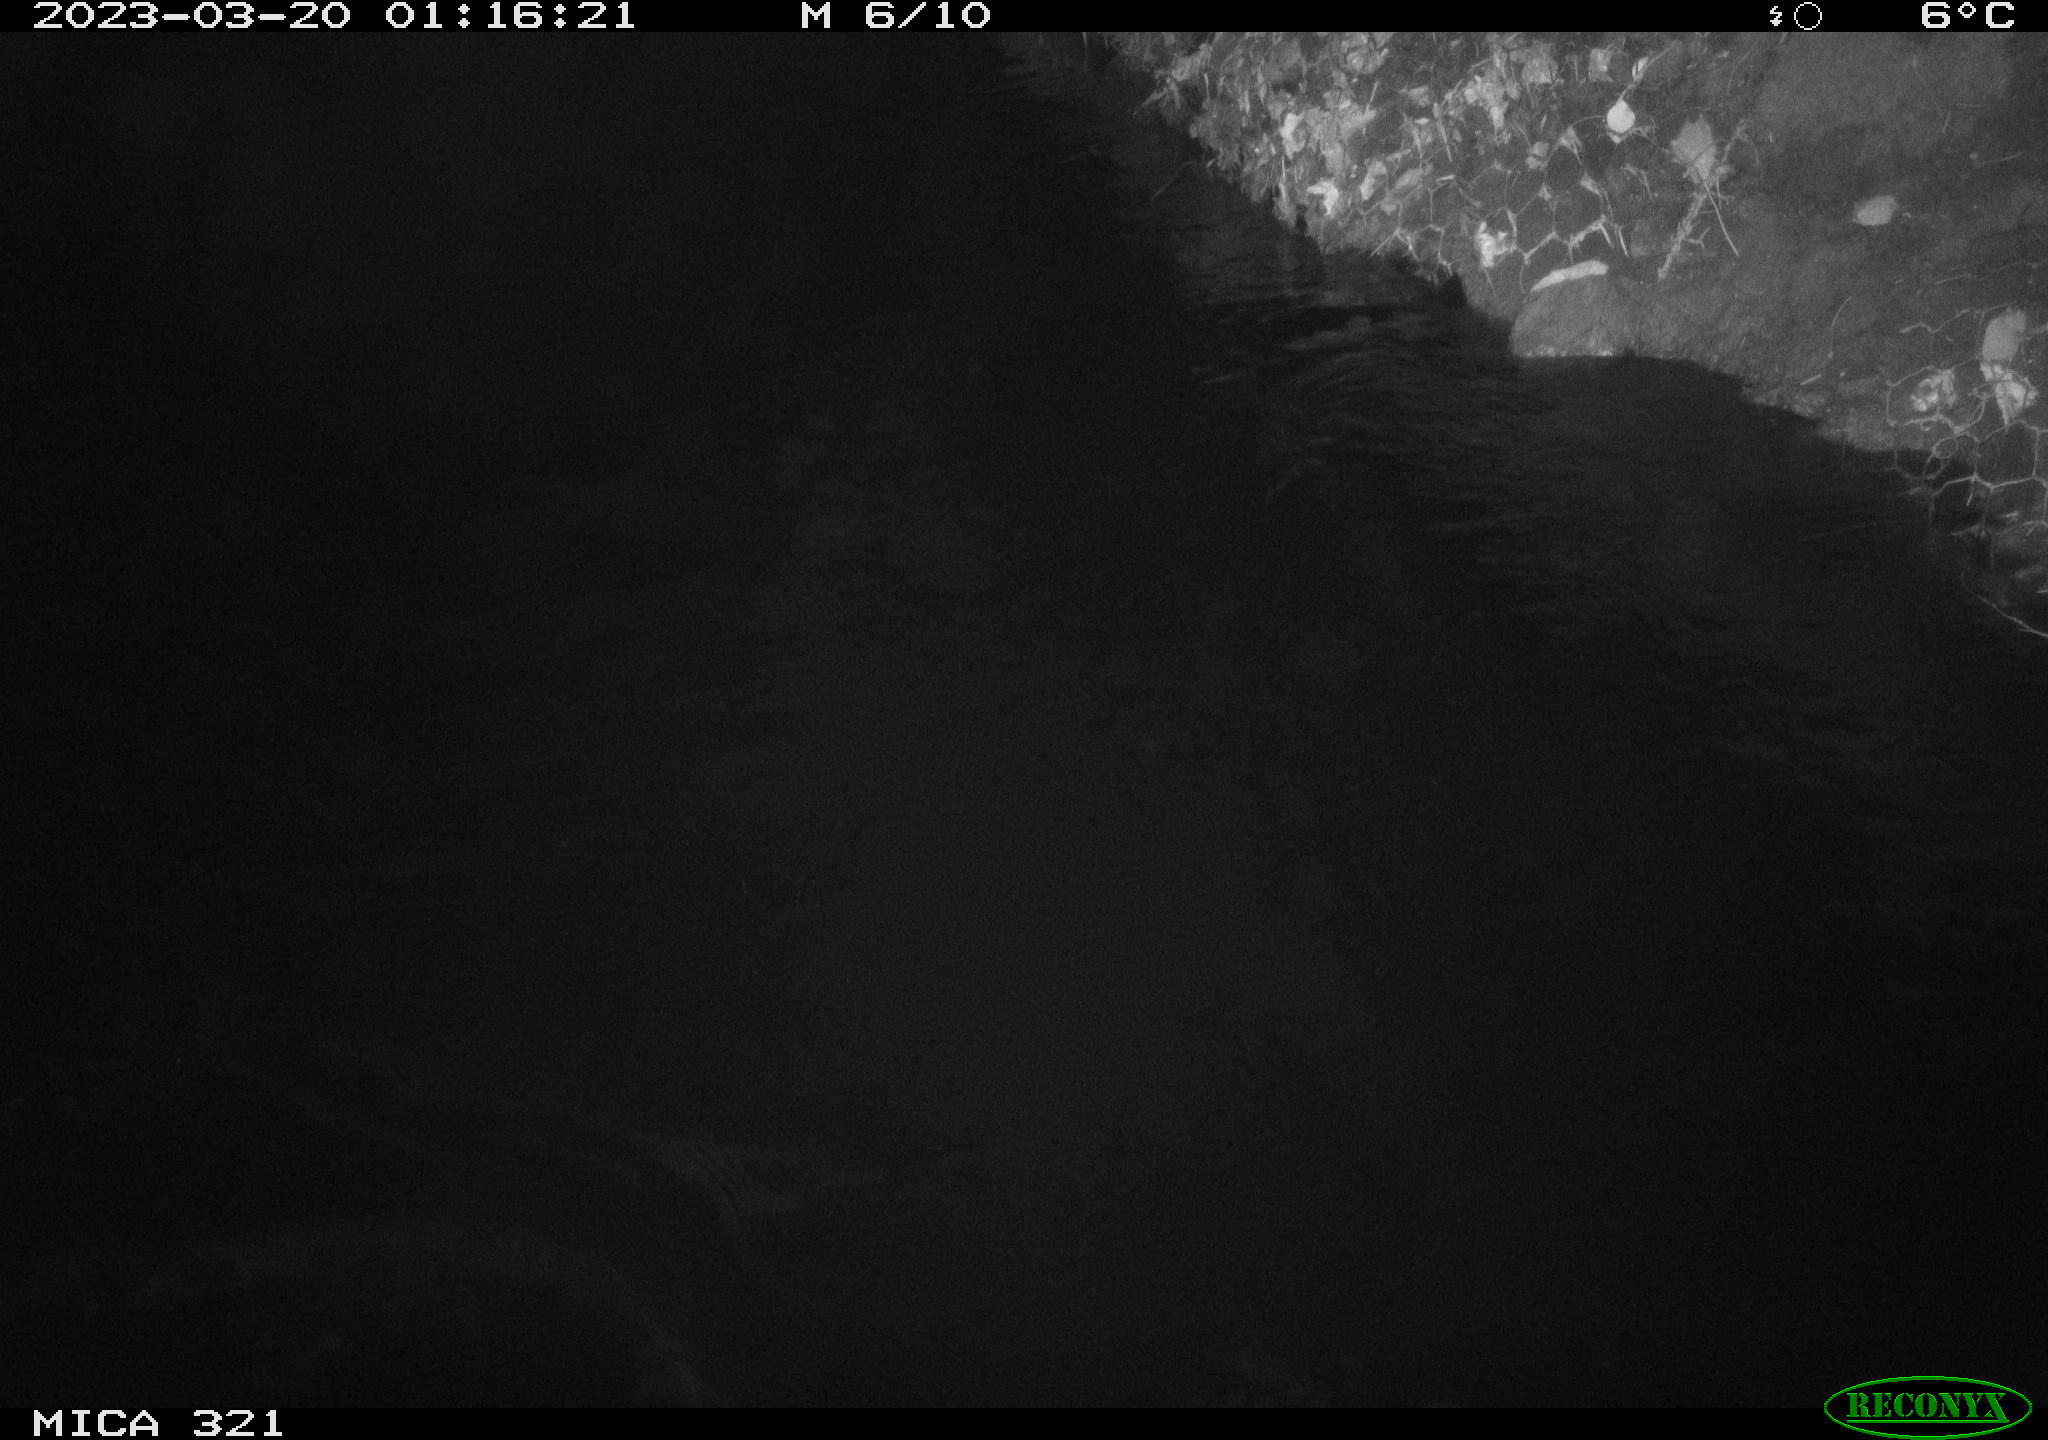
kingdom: Animalia
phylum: Chordata
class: Aves
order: Anseriformes
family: Anatidae
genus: Anas
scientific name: Anas
